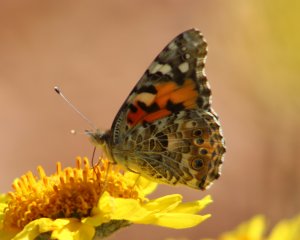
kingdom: Animalia
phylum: Arthropoda
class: Insecta
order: Lepidoptera
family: Nymphalidae
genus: Vanessa
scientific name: Vanessa cardui
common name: Painted Lady
